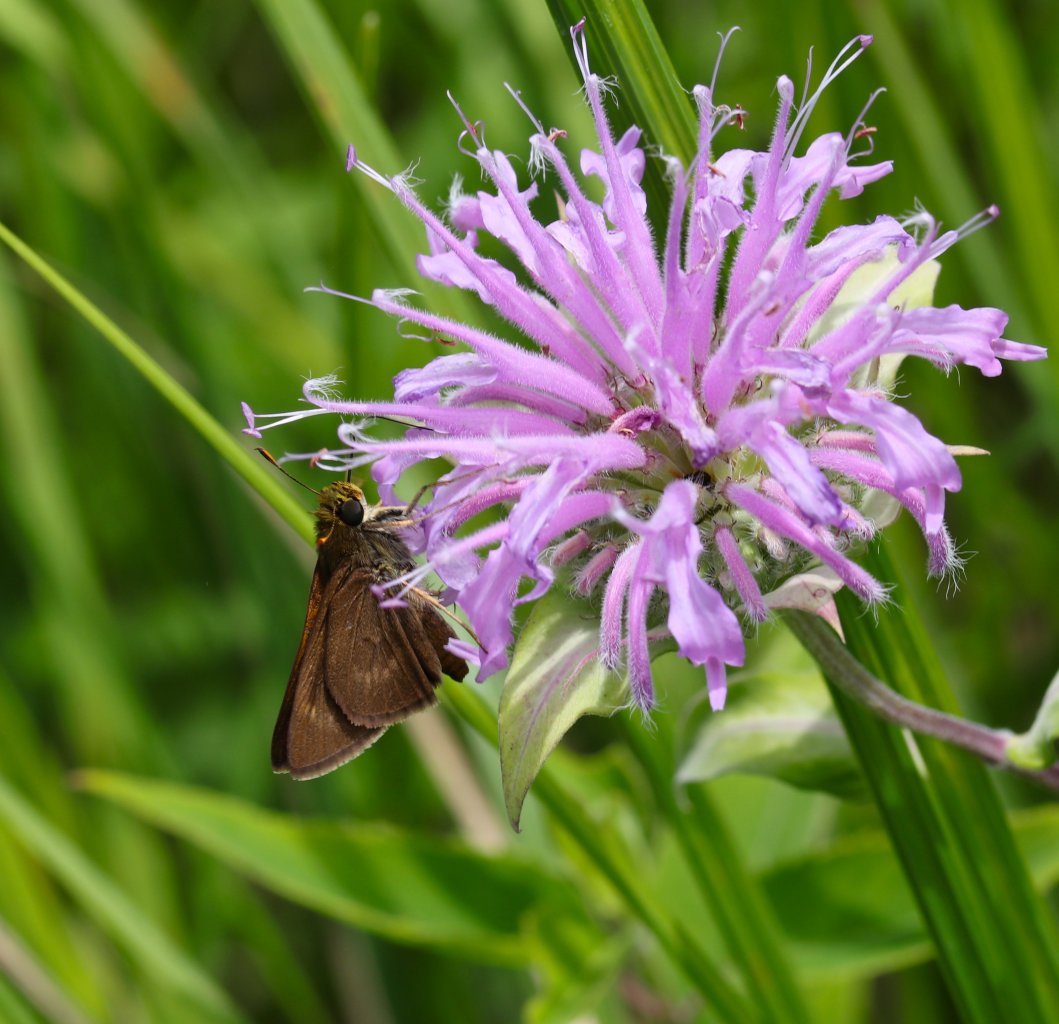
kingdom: Animalia
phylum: Arthropoda
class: Insecta
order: Lepidoptera
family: Hesperiidae
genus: Polites
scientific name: Polites egeremet
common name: Northern Broken-Dash
